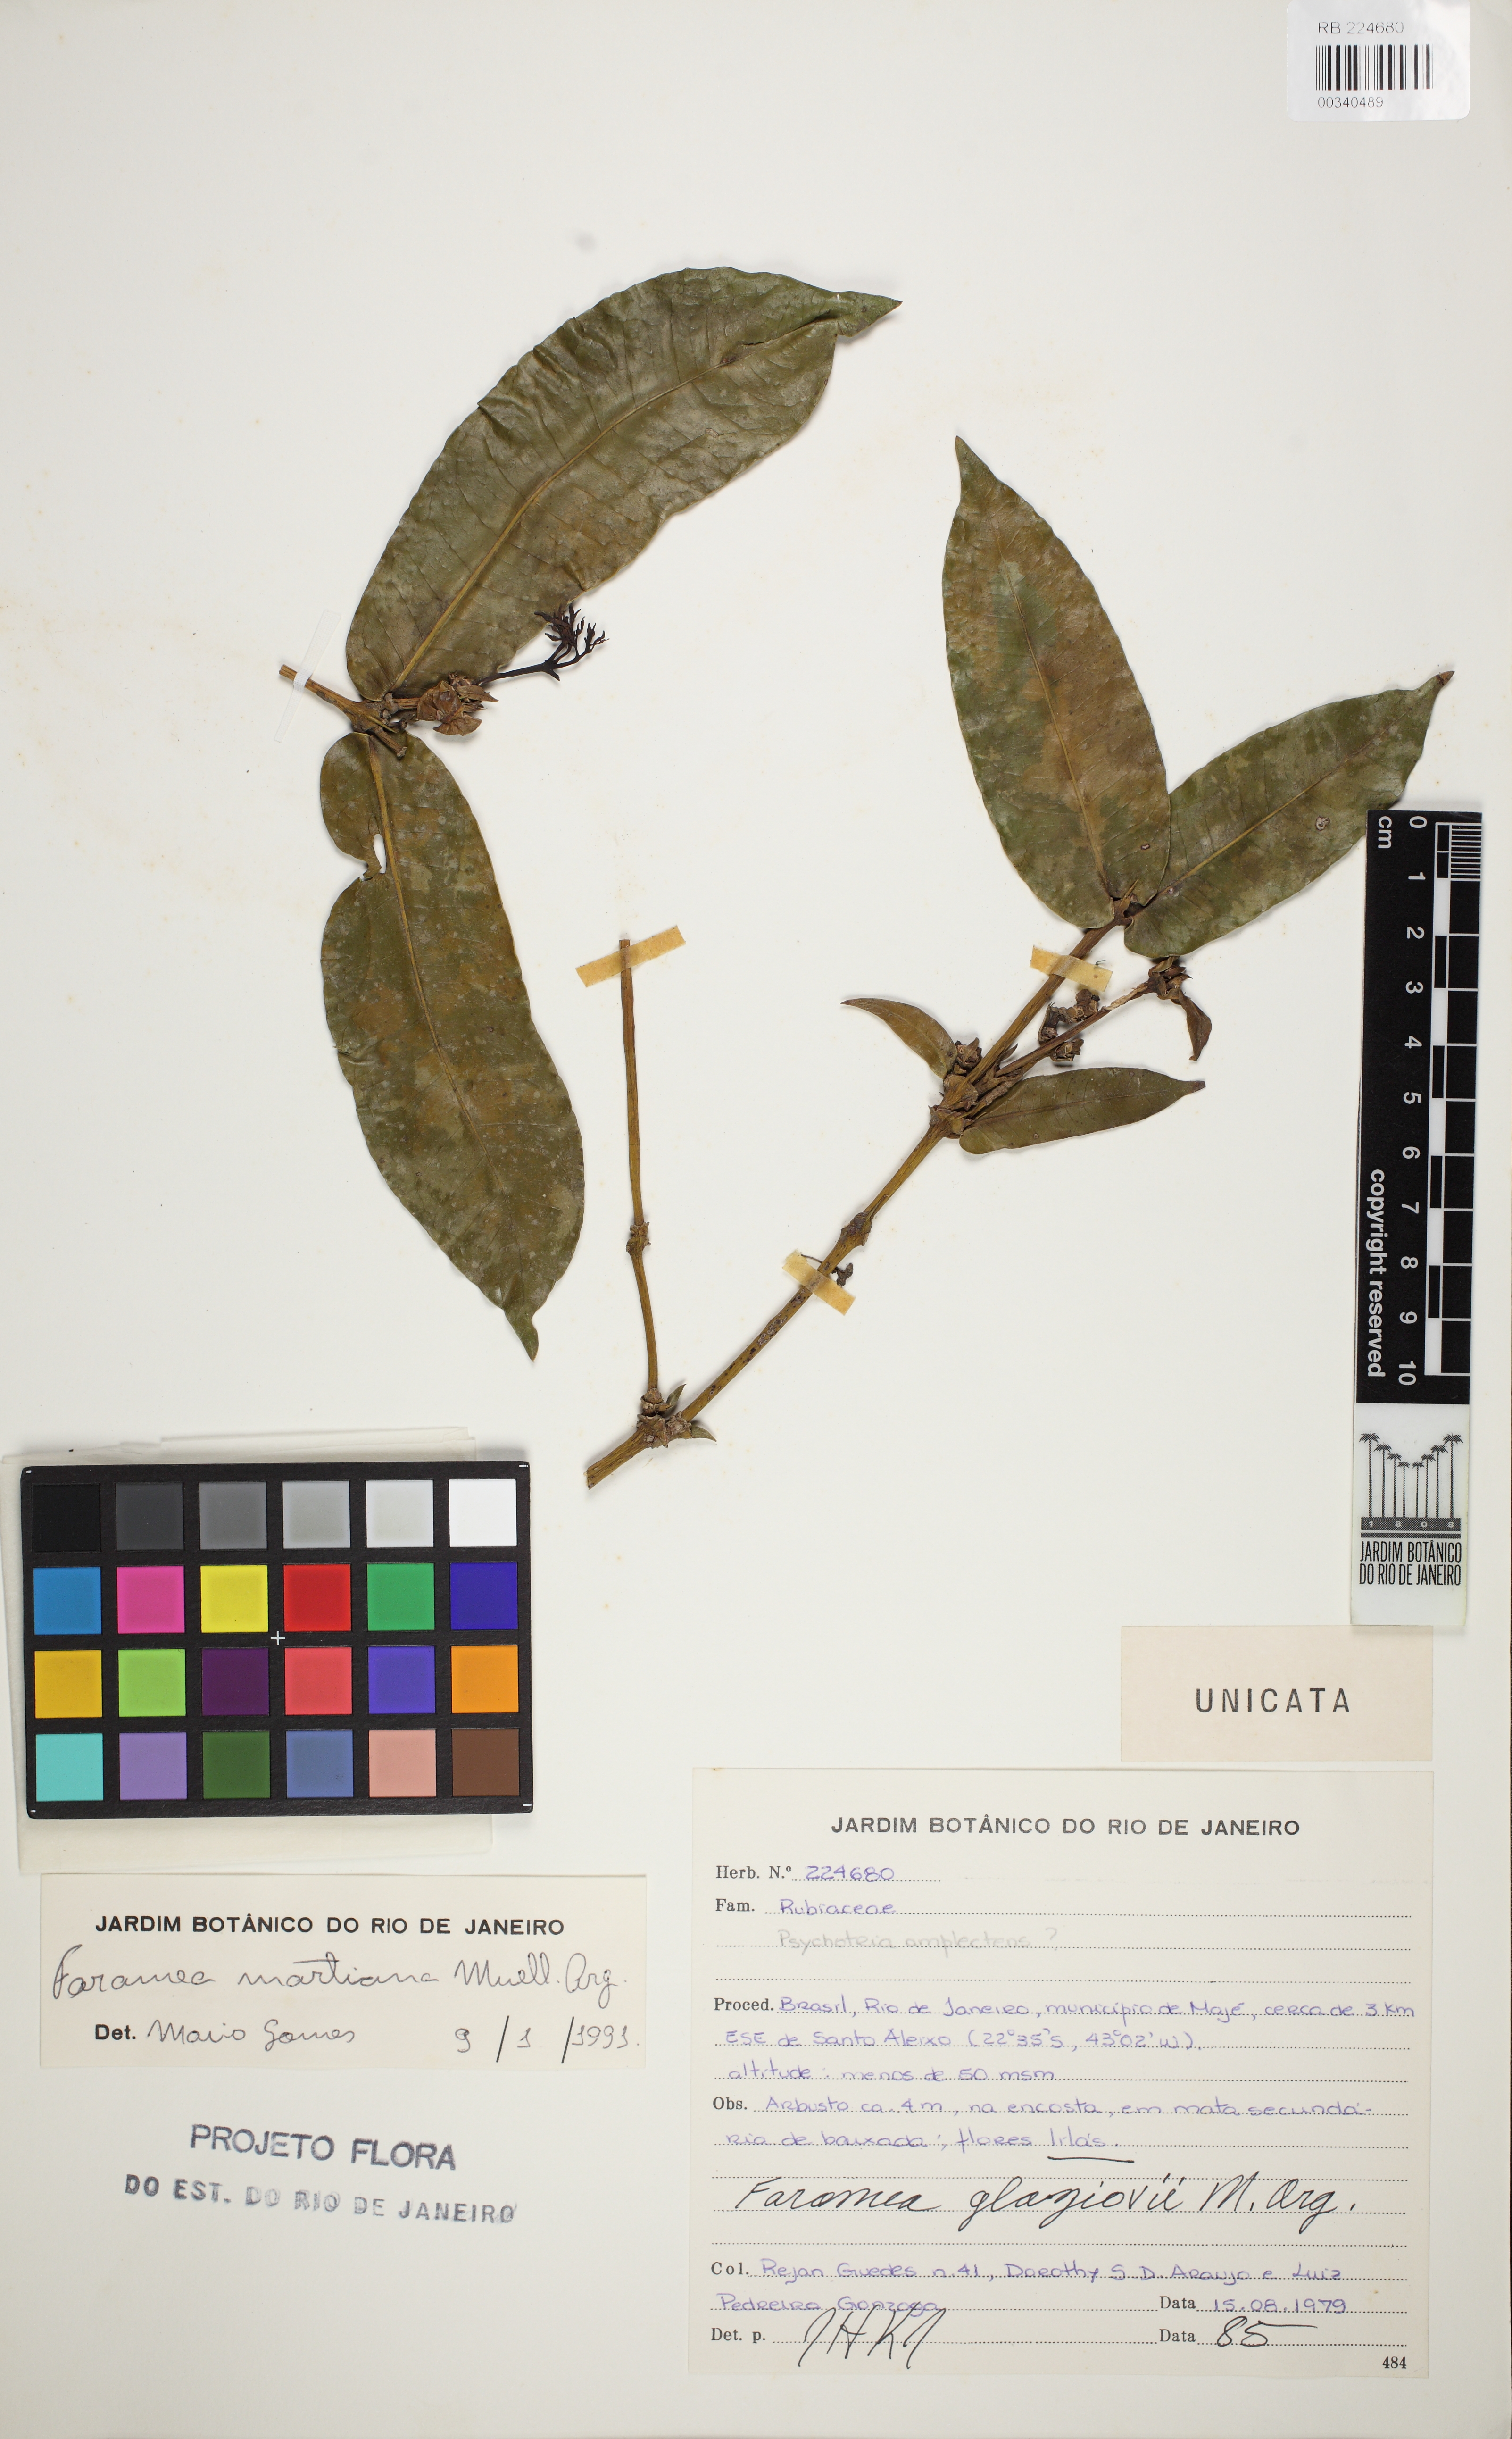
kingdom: Plantae
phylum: Tracheophyta
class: Magnoliopsida
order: Gentianales
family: Rubiaceae
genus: Faramea
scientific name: Faramea martiana
